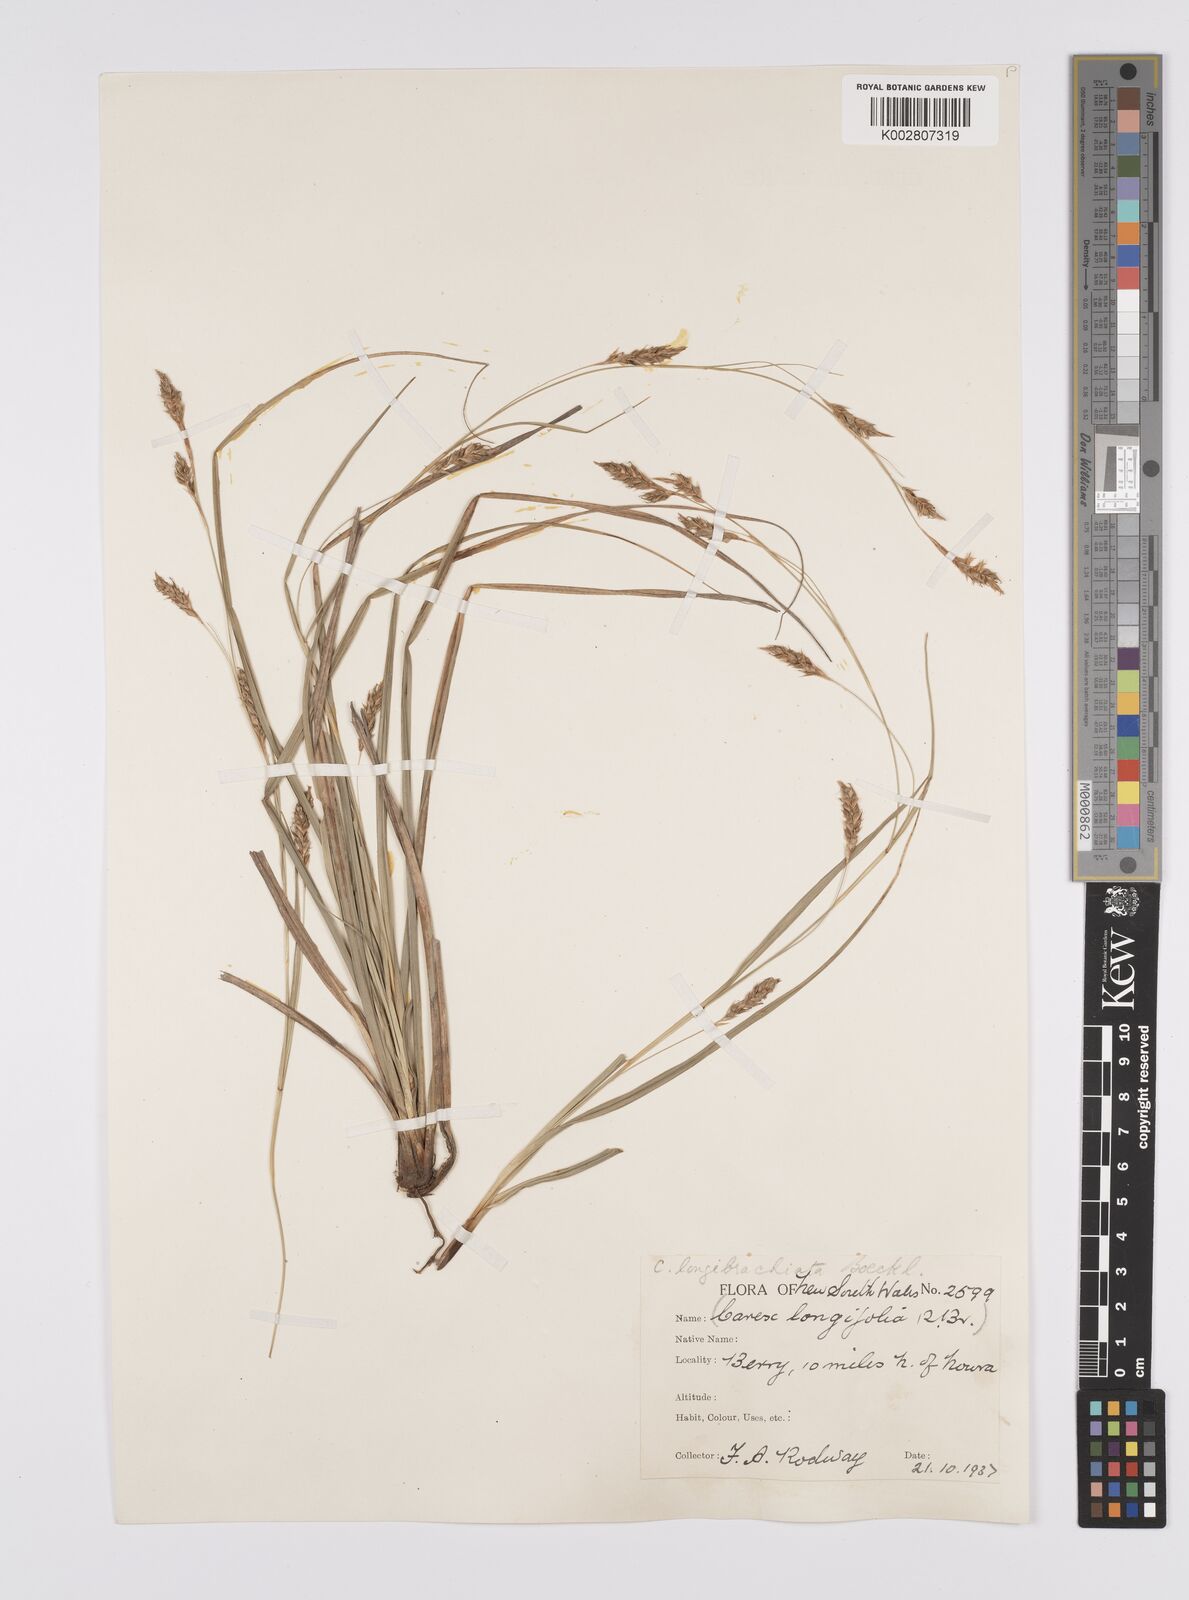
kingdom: Plantae
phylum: Tracheophyta
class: Liliopsida
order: Poales
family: Cyperaceae
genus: Carex
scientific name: Carex pseudocyperus
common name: Cyperus sedge
